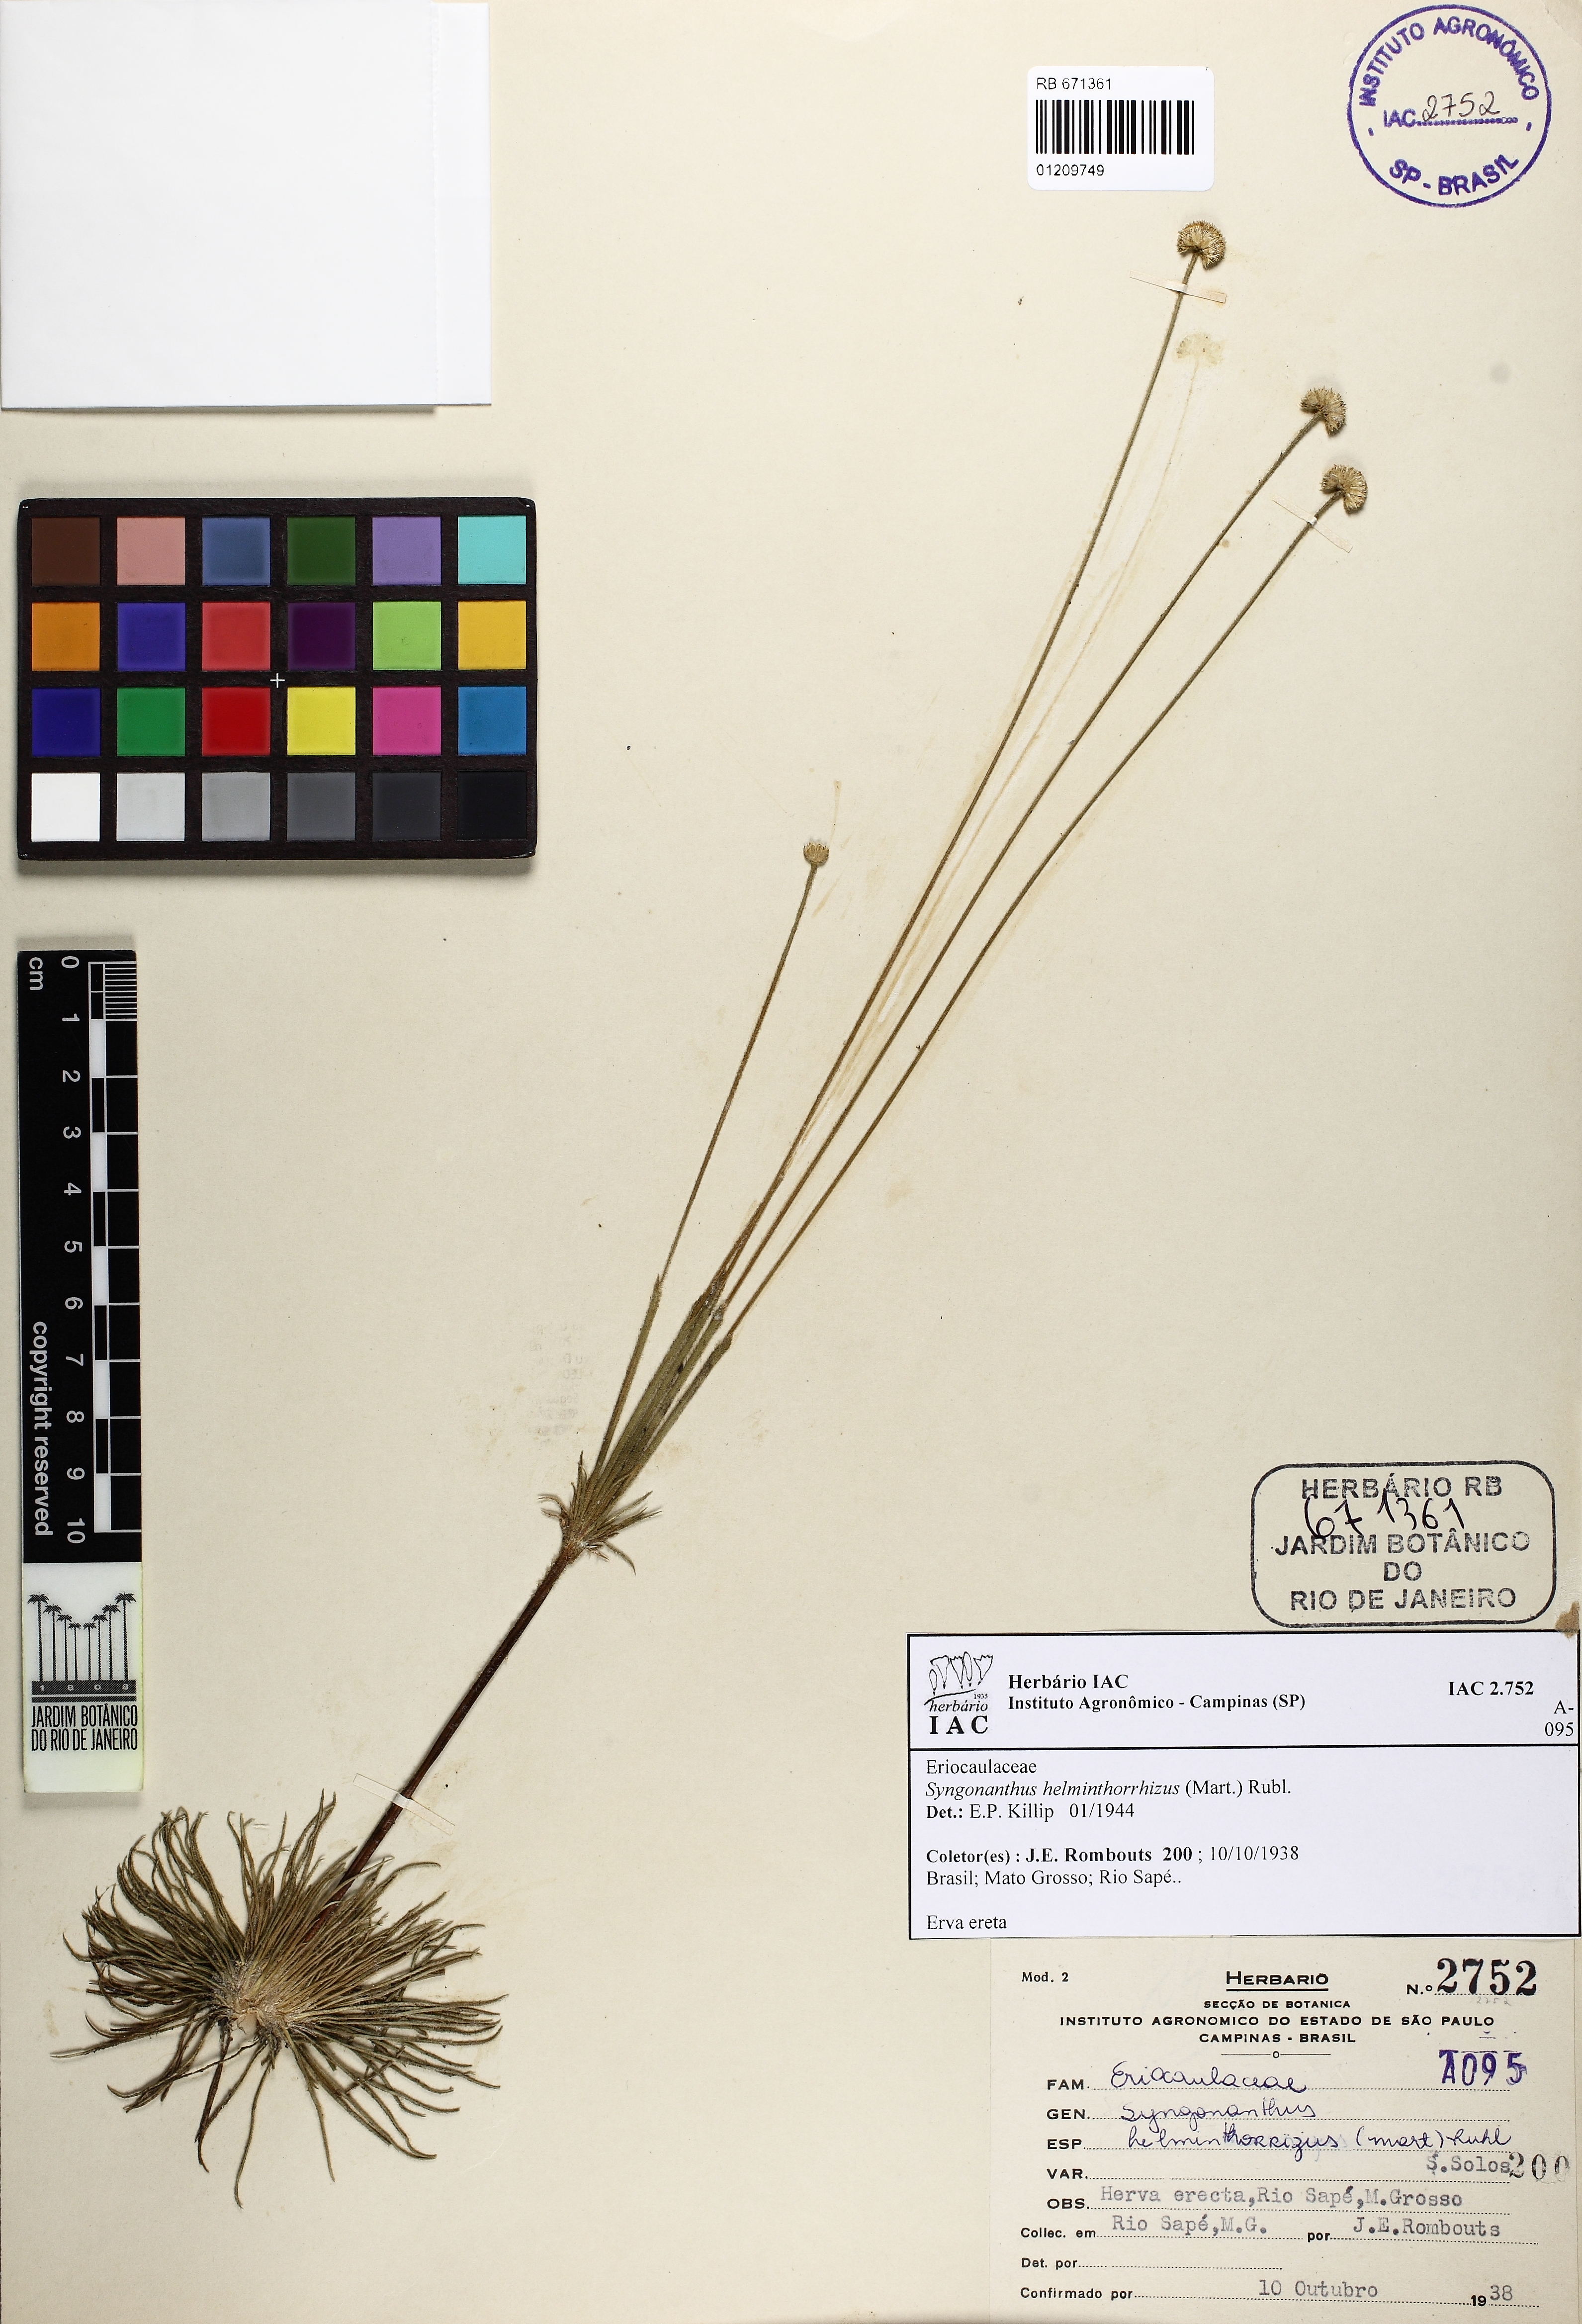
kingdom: Plantae
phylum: Tracheophyta
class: Liliopsida
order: Poales
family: Eriocaulaceae
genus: Syngonanthus
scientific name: Syngonanthus helminthorrhizus
